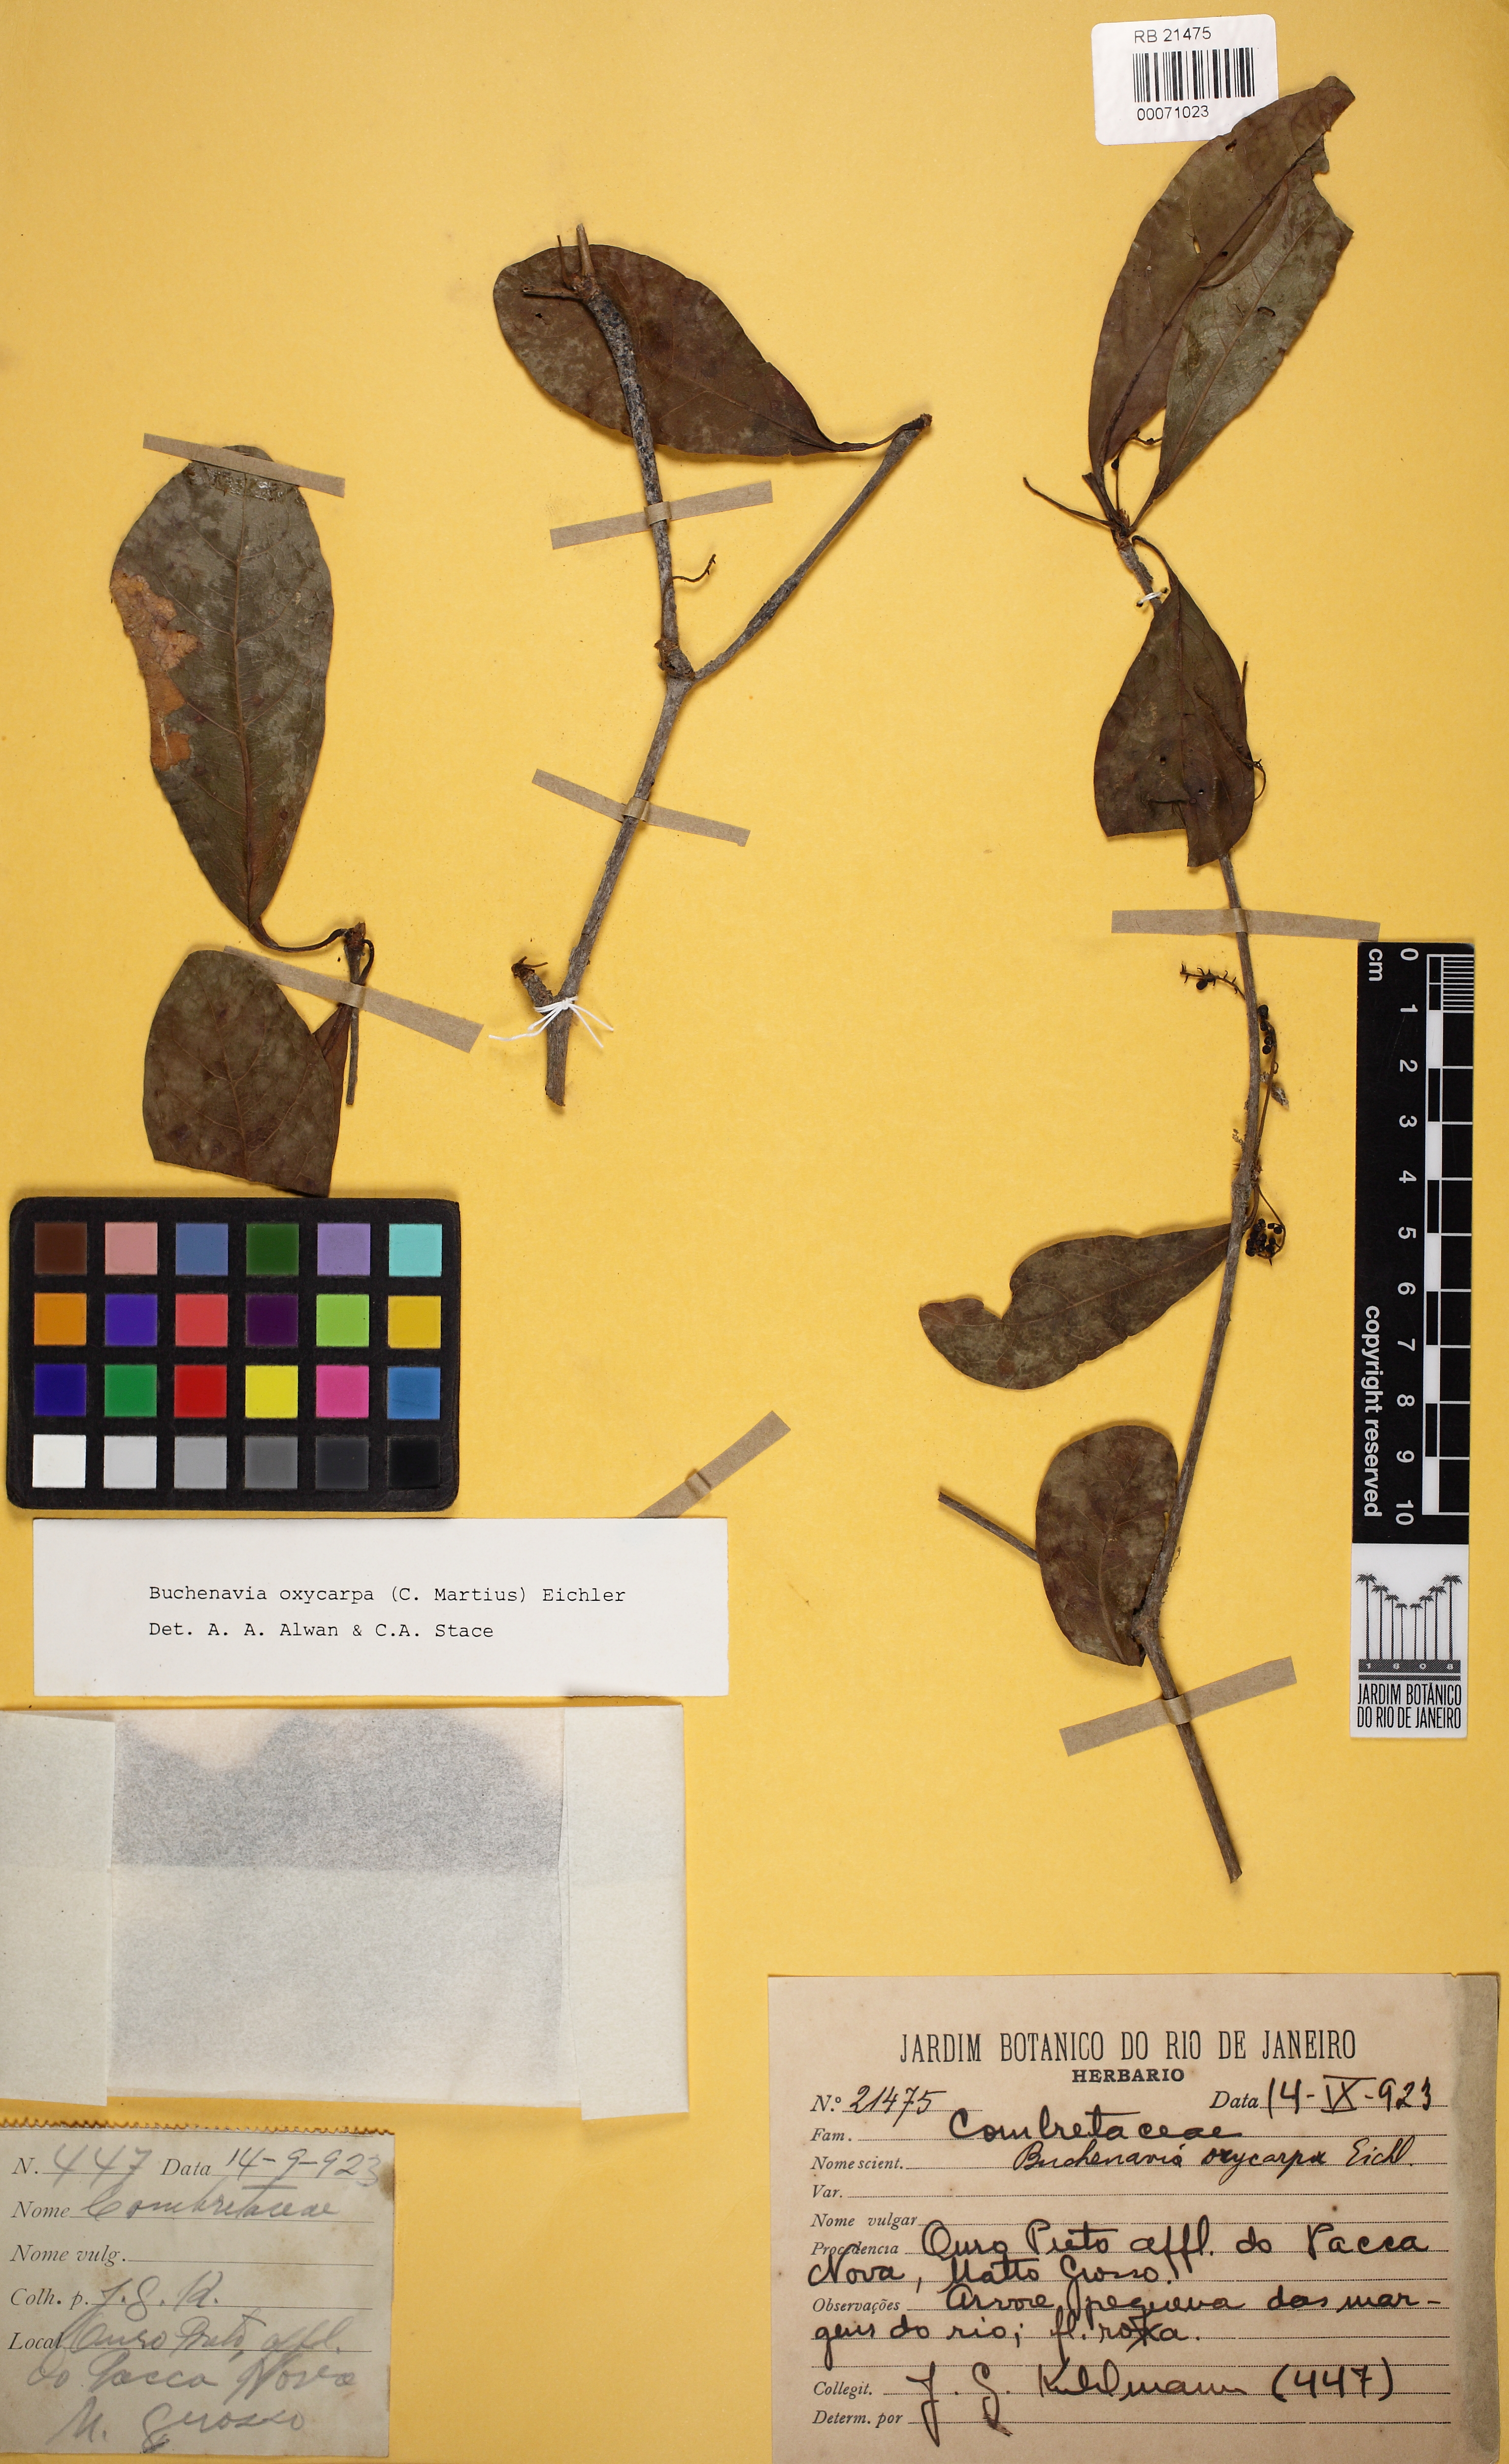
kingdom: Plantae
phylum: Tracheophyta
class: Magnoliopsida
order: Myrtales
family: Combretaceae
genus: Terminalia
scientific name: Terminalia oxycarpa
